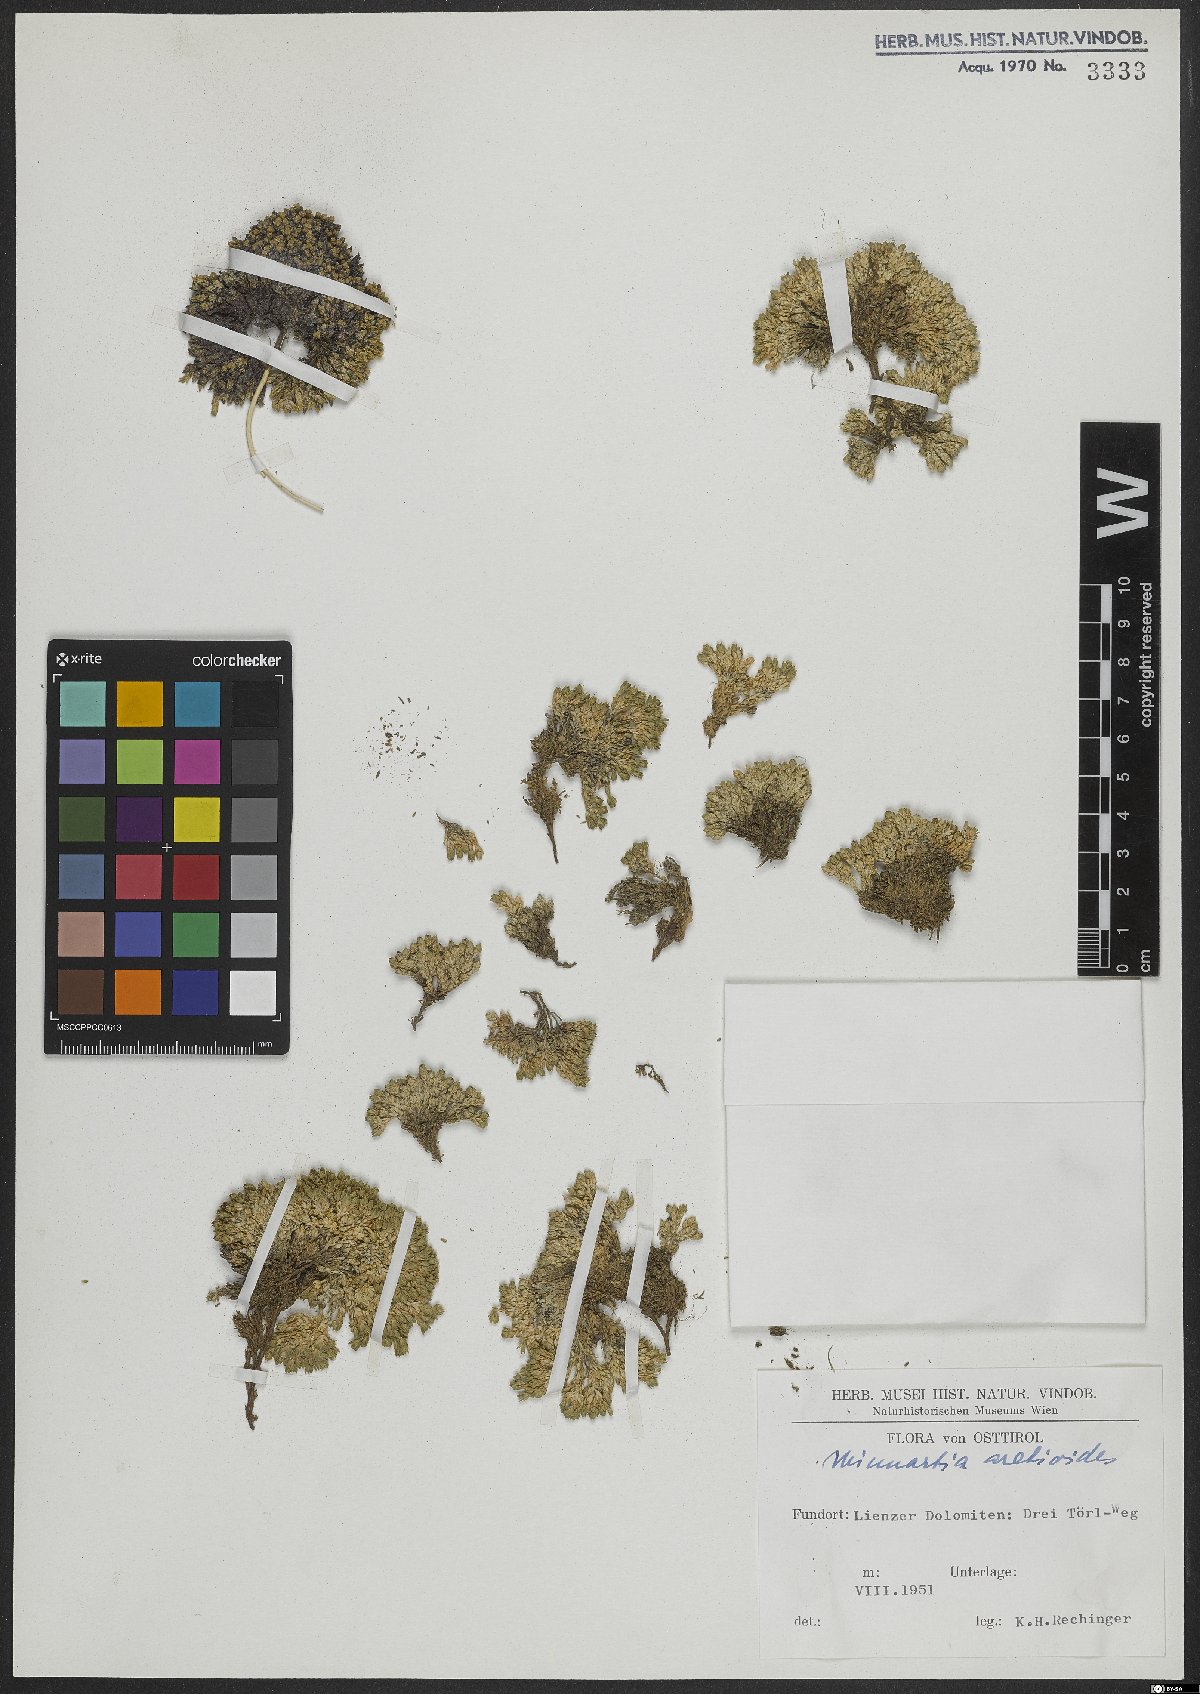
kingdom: Plantae
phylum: Tracheophyta
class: Magnoliopsida
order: Caryophyllales
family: Caryophyllaceae
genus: Facchinia
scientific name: Facchinia cherlerioides
